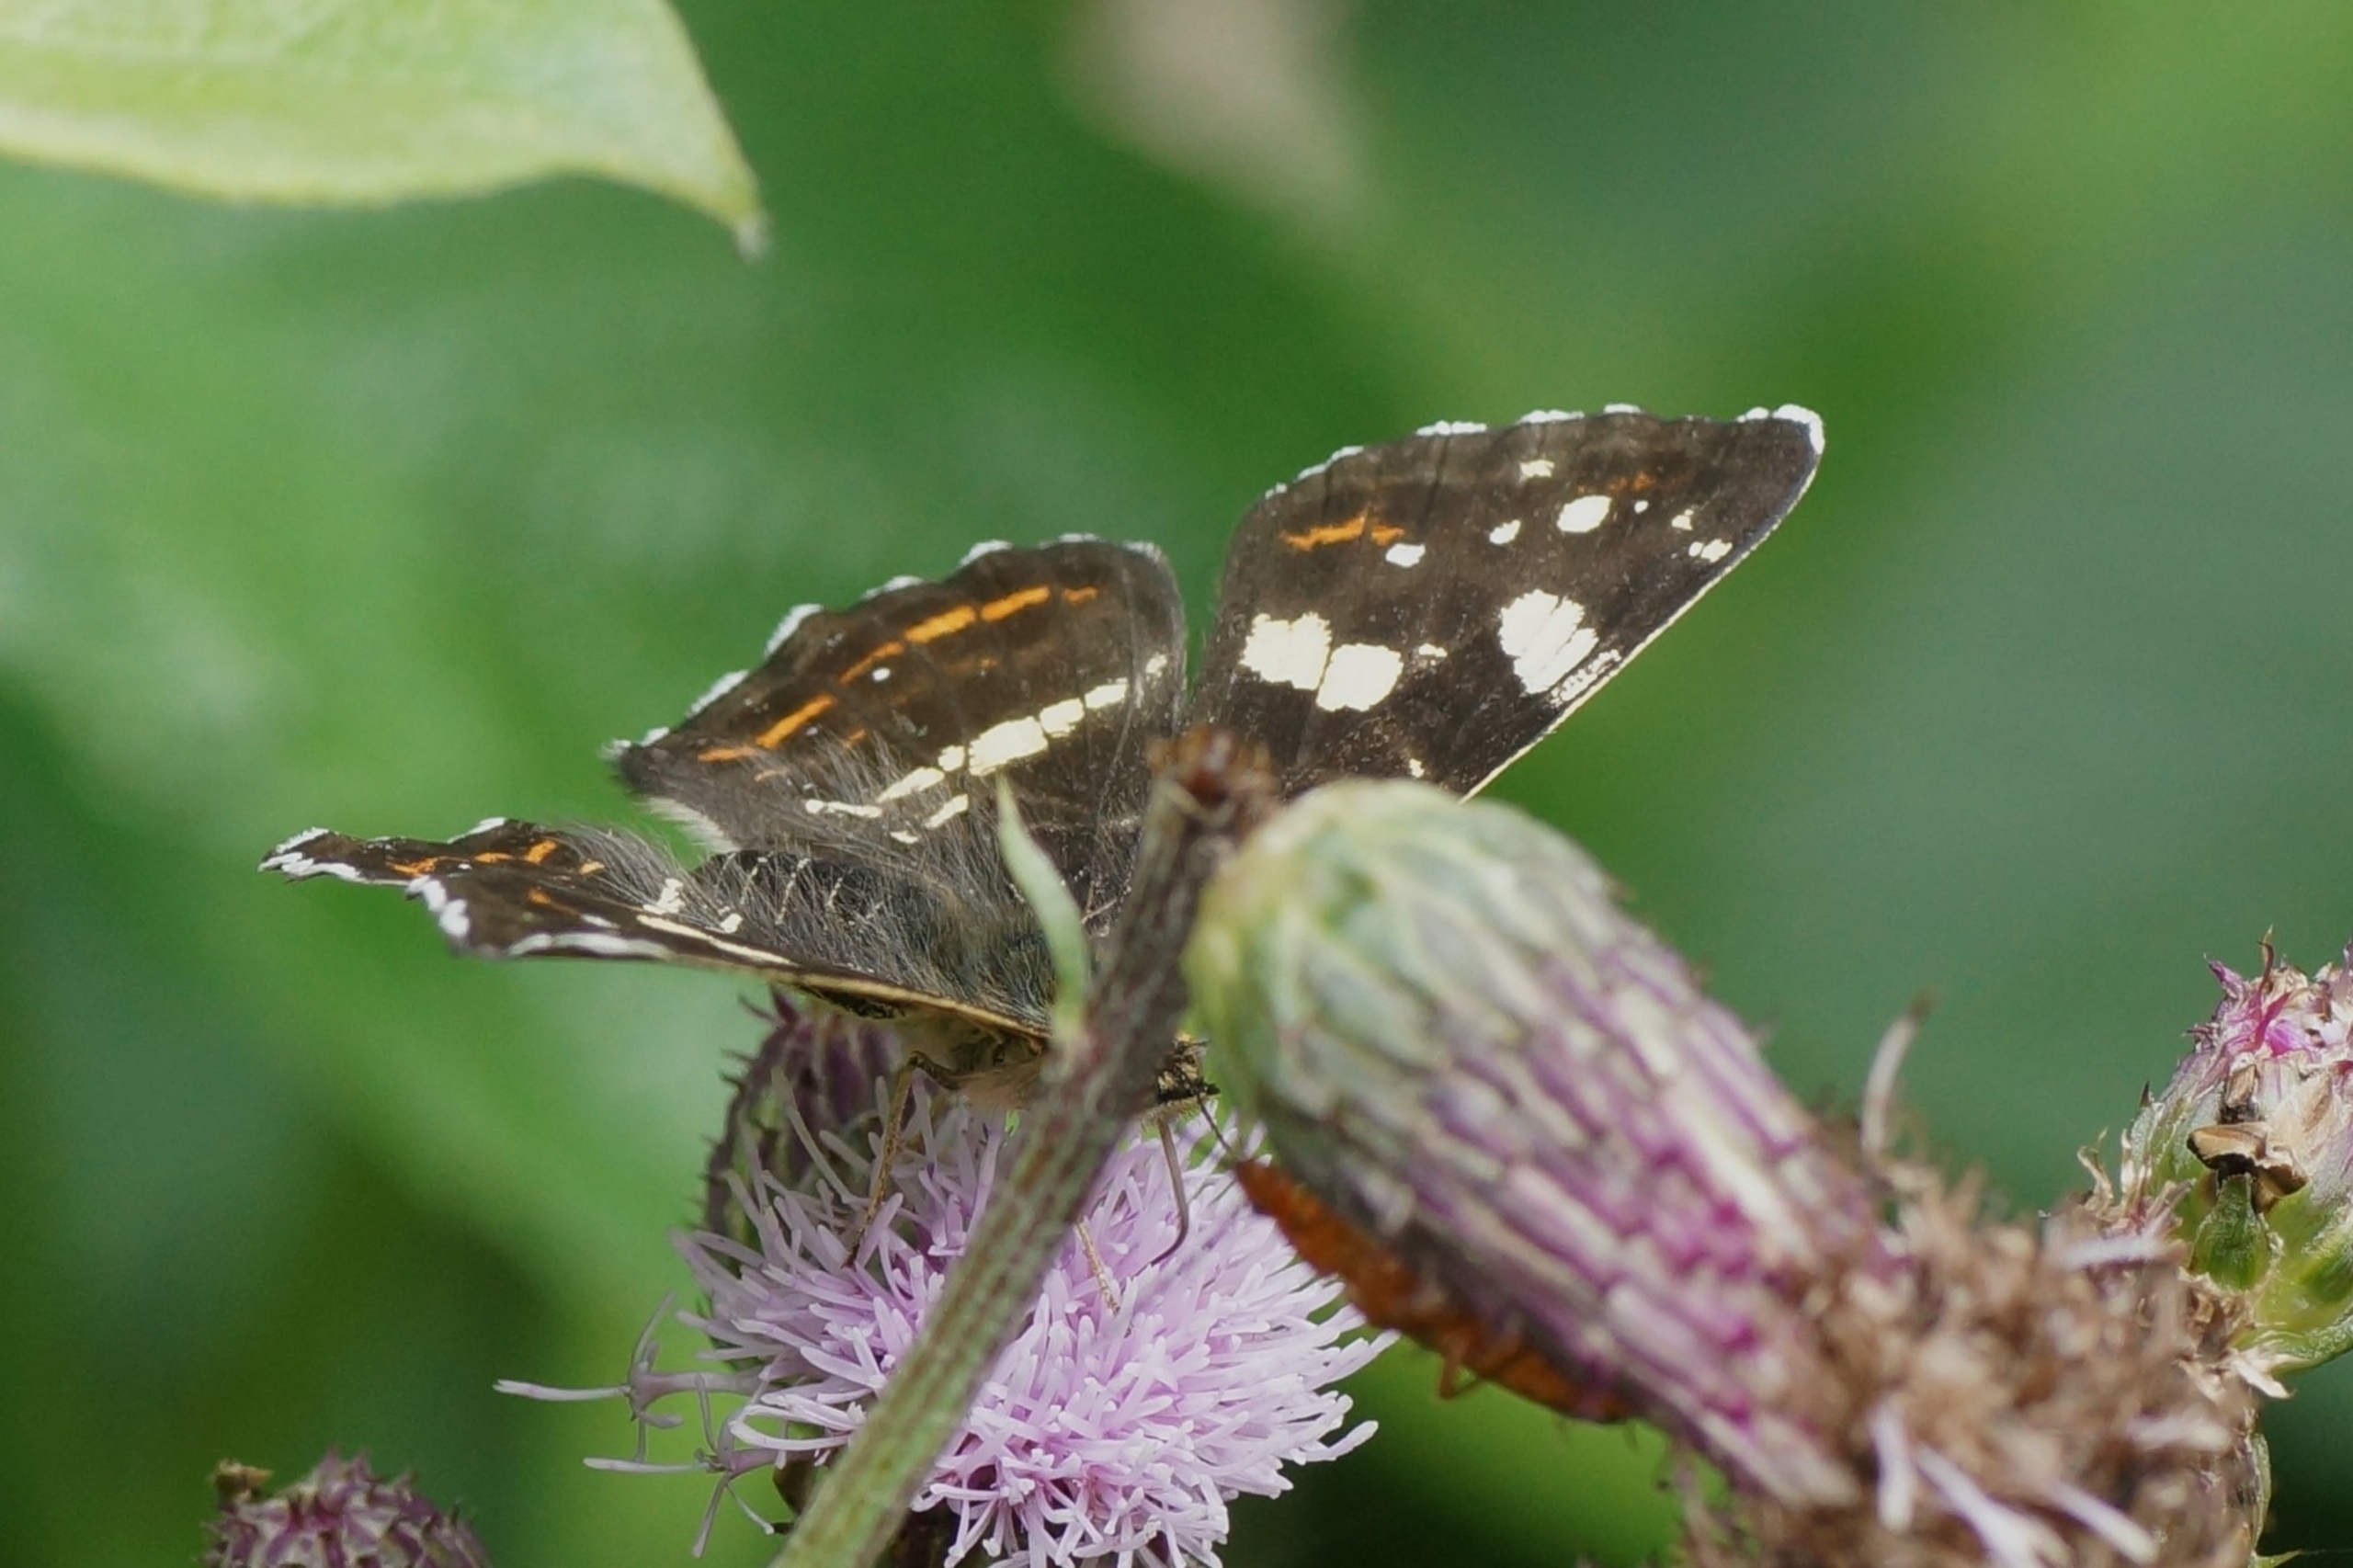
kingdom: Animalia
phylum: Arthropoda
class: Insecta
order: Lepidoptera
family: Nymphalidae
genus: Araschnia
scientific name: Araschnia levana
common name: Nældesommerfugl
